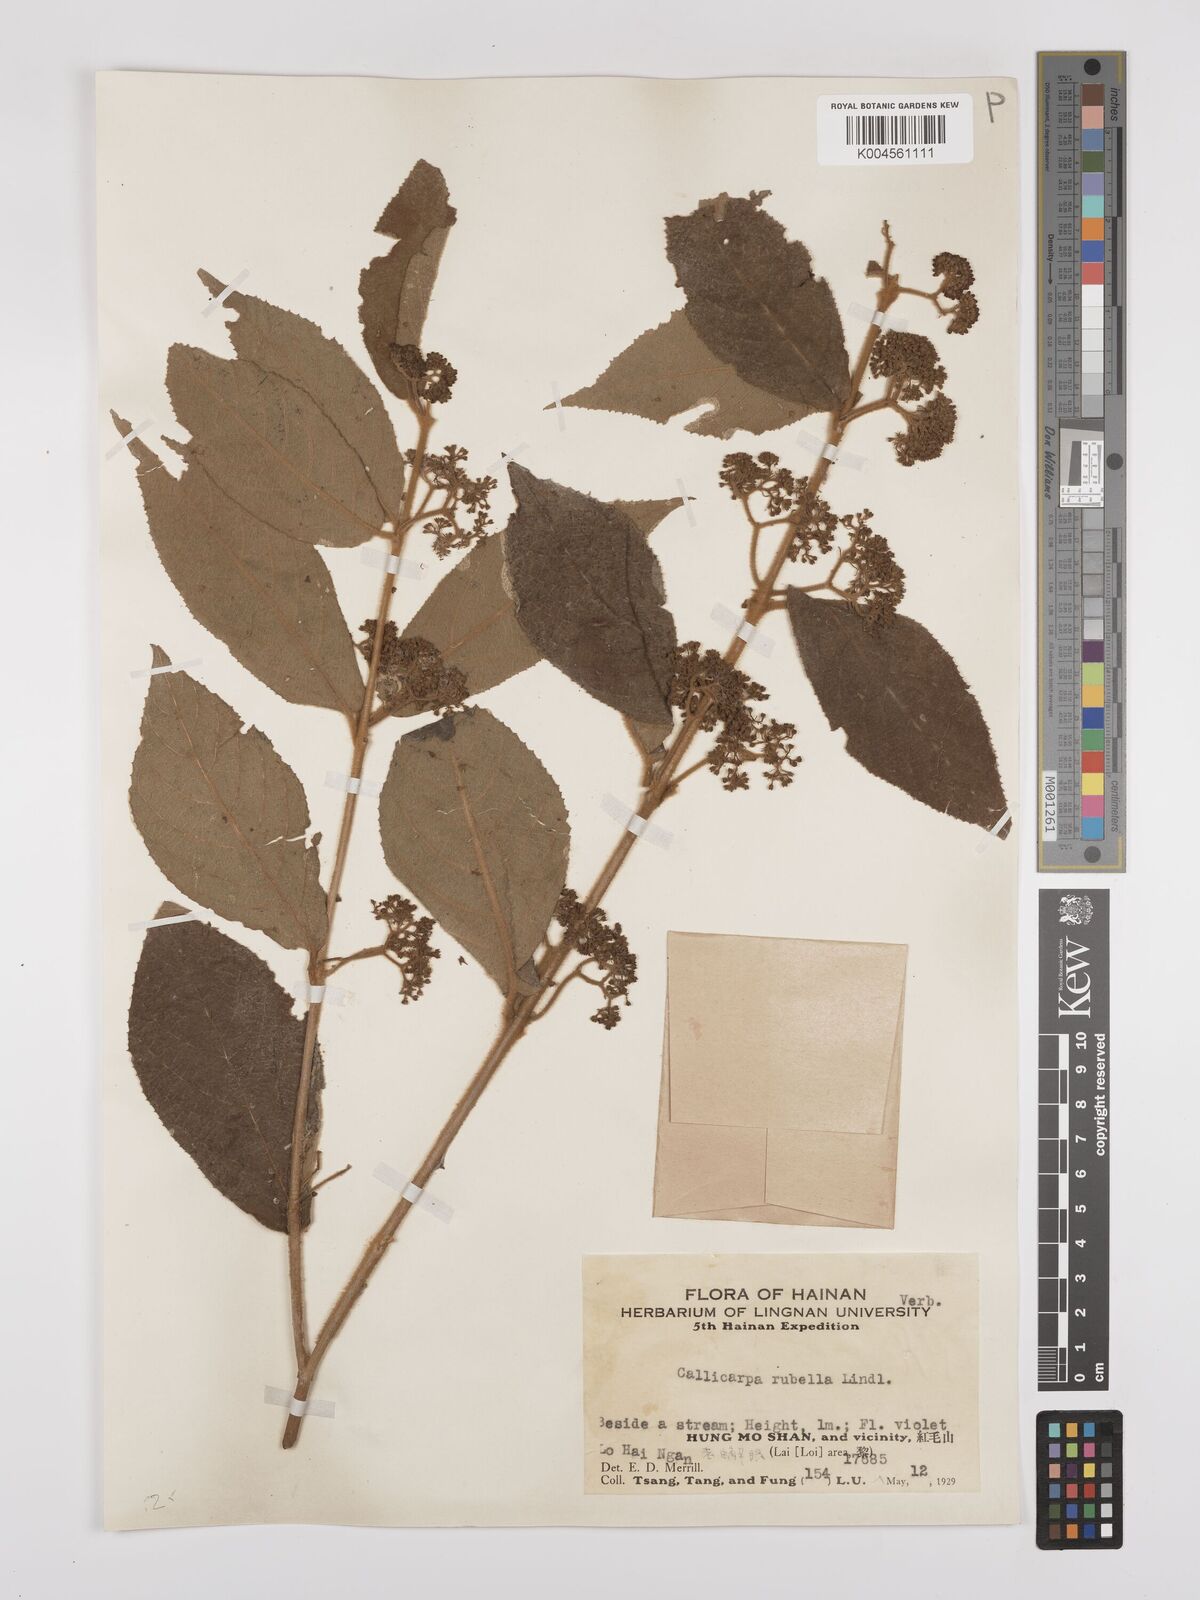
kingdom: Plantae
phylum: Tracheophyta
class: Magnoliopsida
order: Lamiales
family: Lamiaceae
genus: Callicarpa
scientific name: Callicarpa rubella
